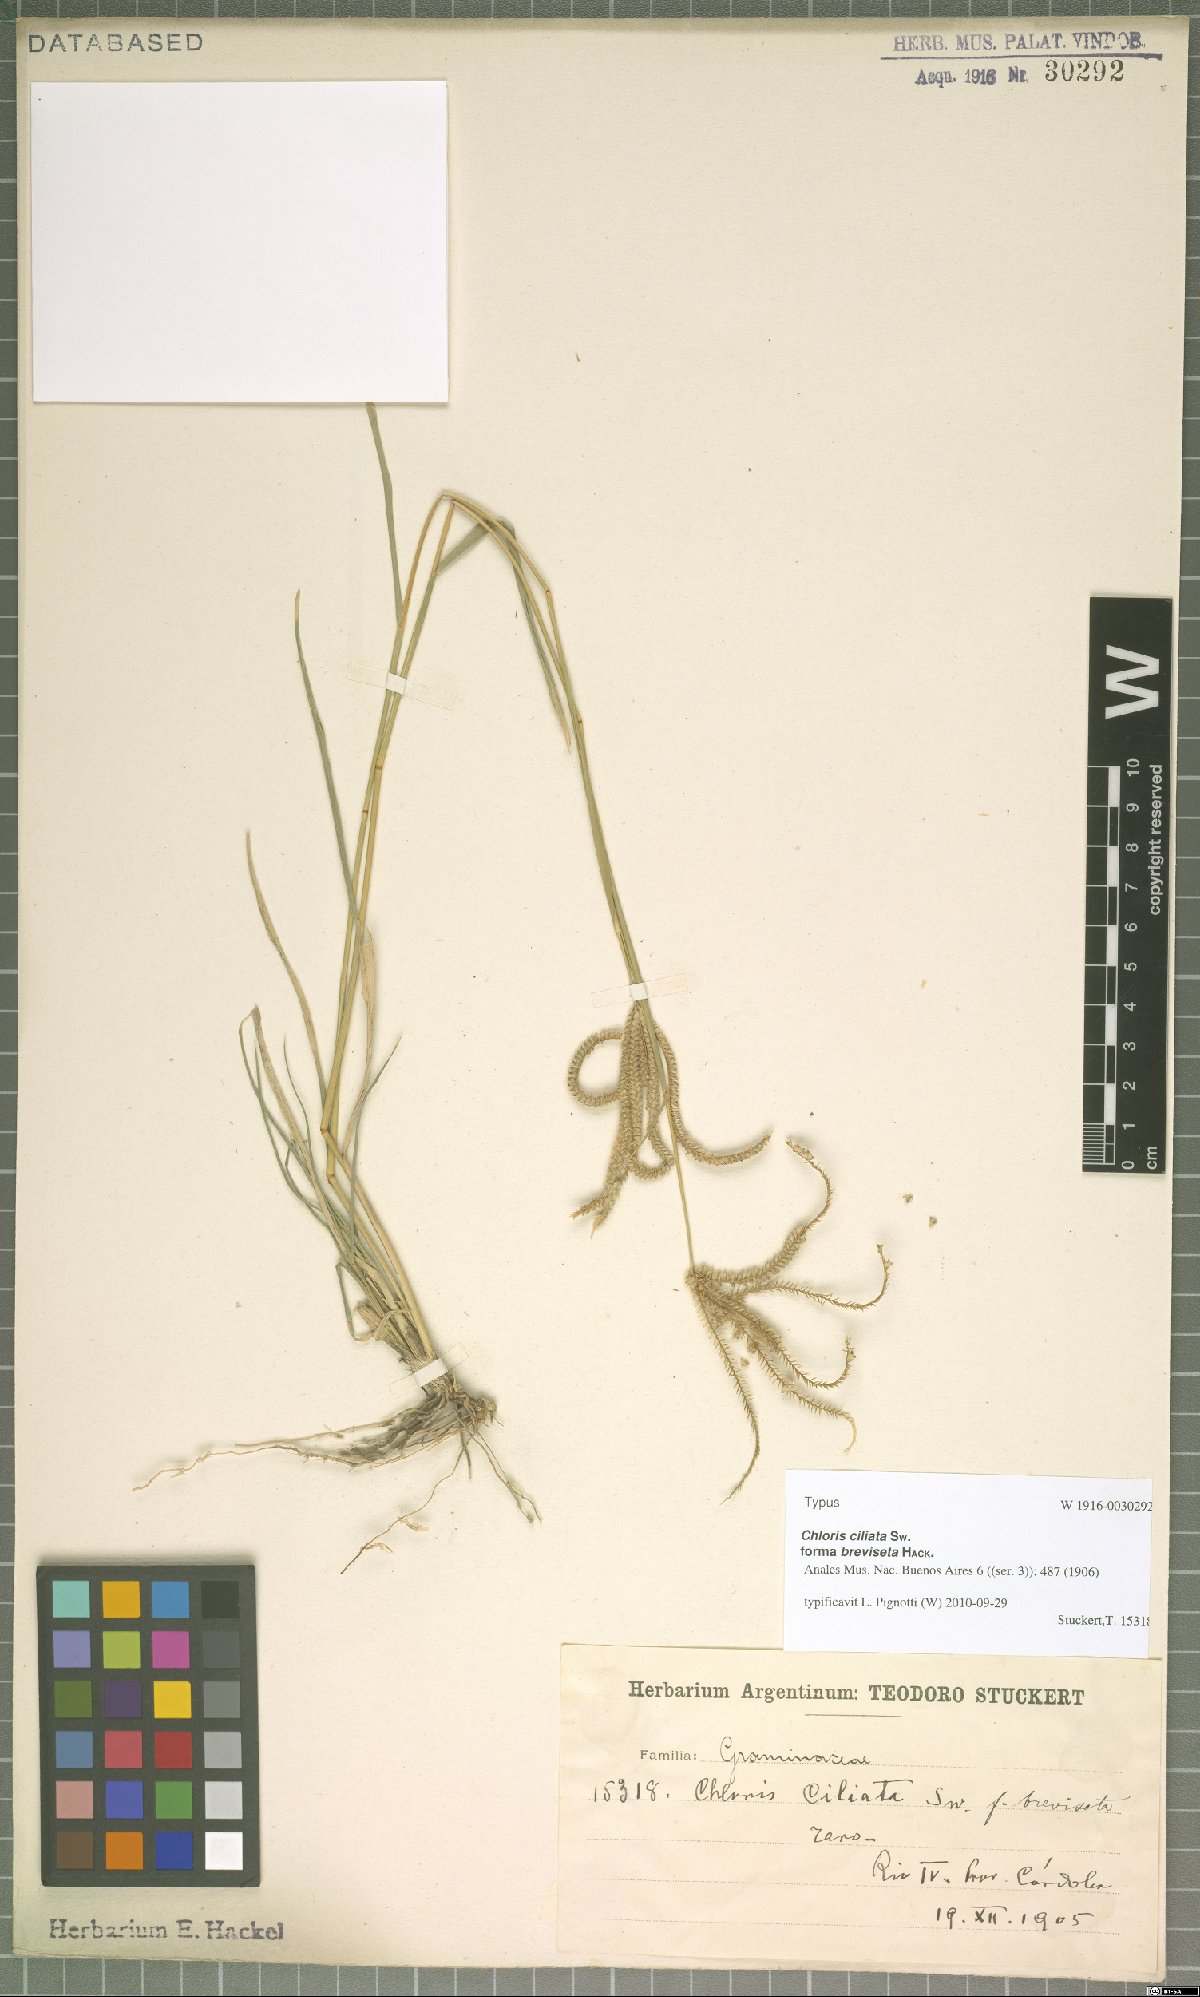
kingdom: Plantae
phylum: Tracheophyta
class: Liliopsida
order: Poales
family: Poaceae
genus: Stapfochloa
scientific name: Stapfochloa ciliata
